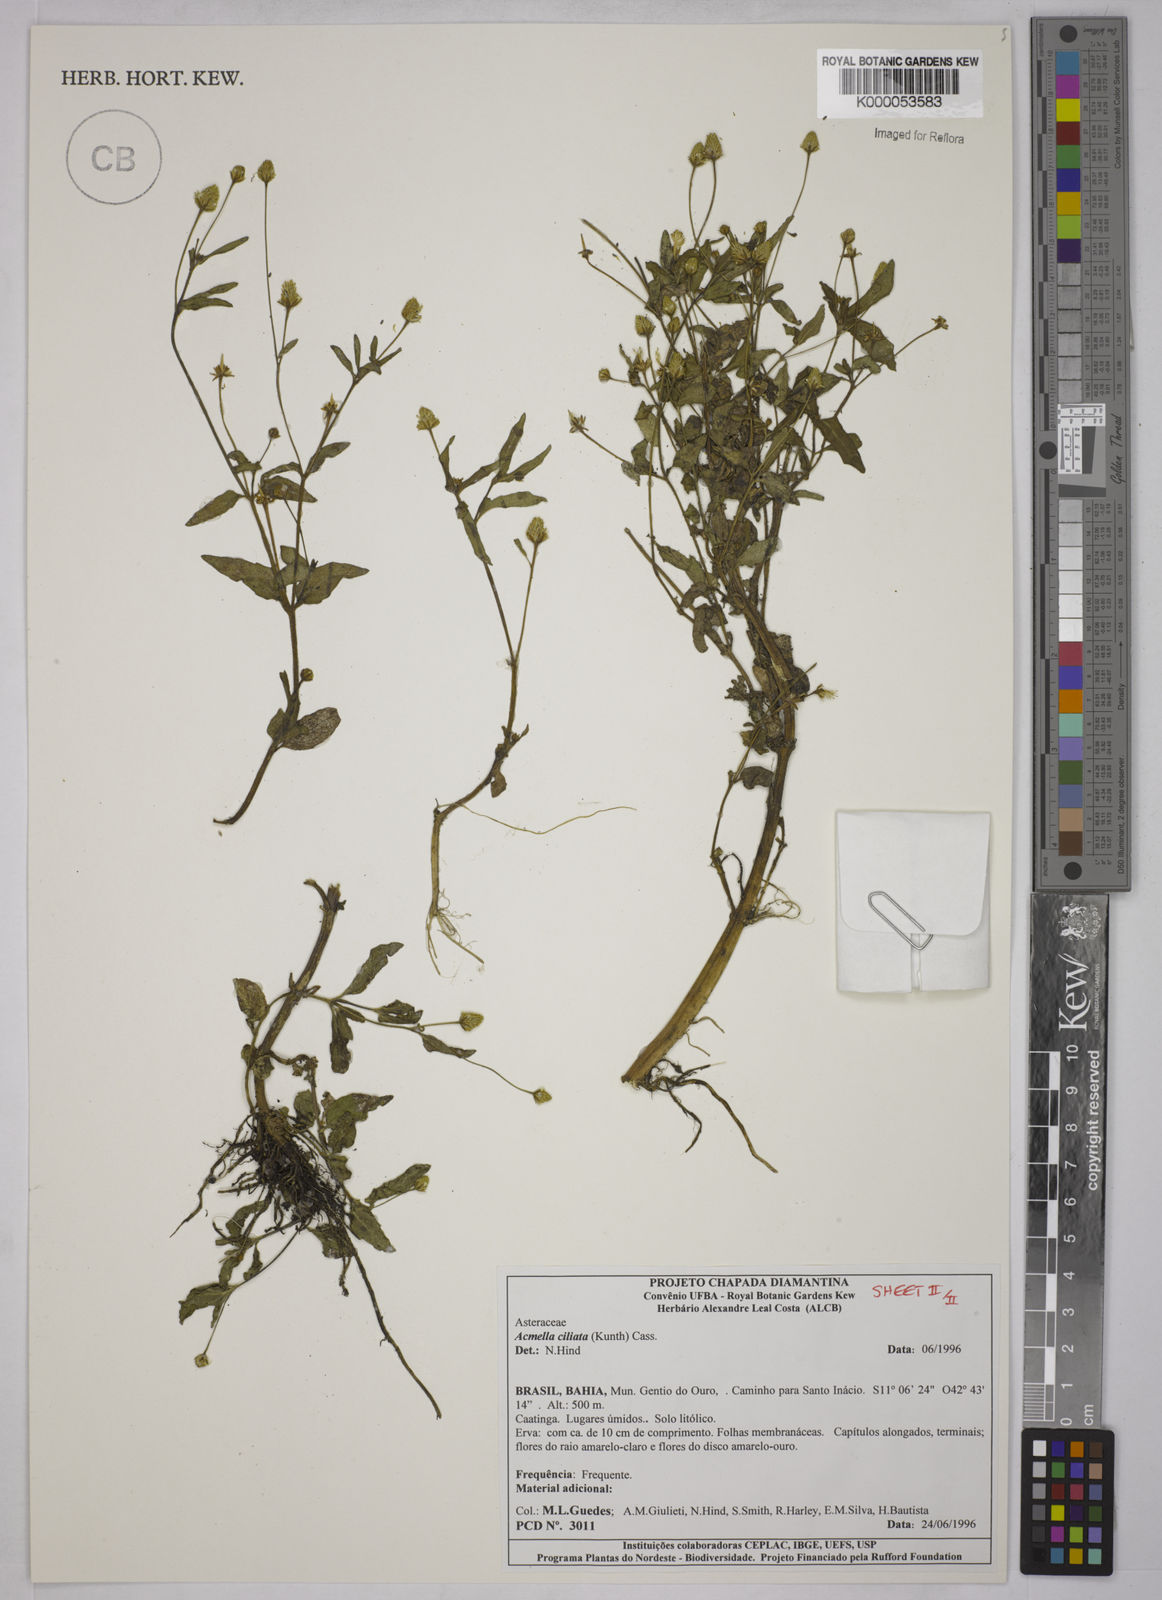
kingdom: Plantae
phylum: Tracheophyta
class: Magnoliopsida
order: Asterales
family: Asteraceae
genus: Acmella
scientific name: Acmella ciliata
